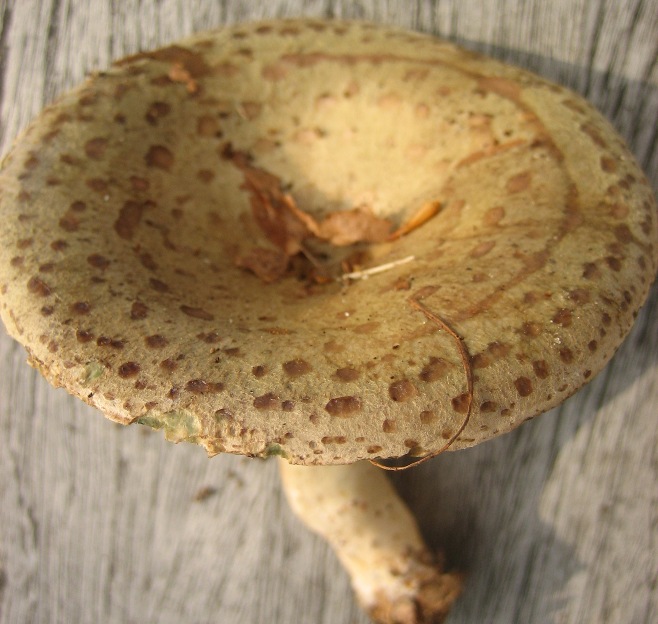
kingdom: Fungi
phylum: Basidiomycota
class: Agaricomycetes
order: Russulales
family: Russulaceae
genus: Lactarius
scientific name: Lactarius blennius
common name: dråbeplettet mælkehat
